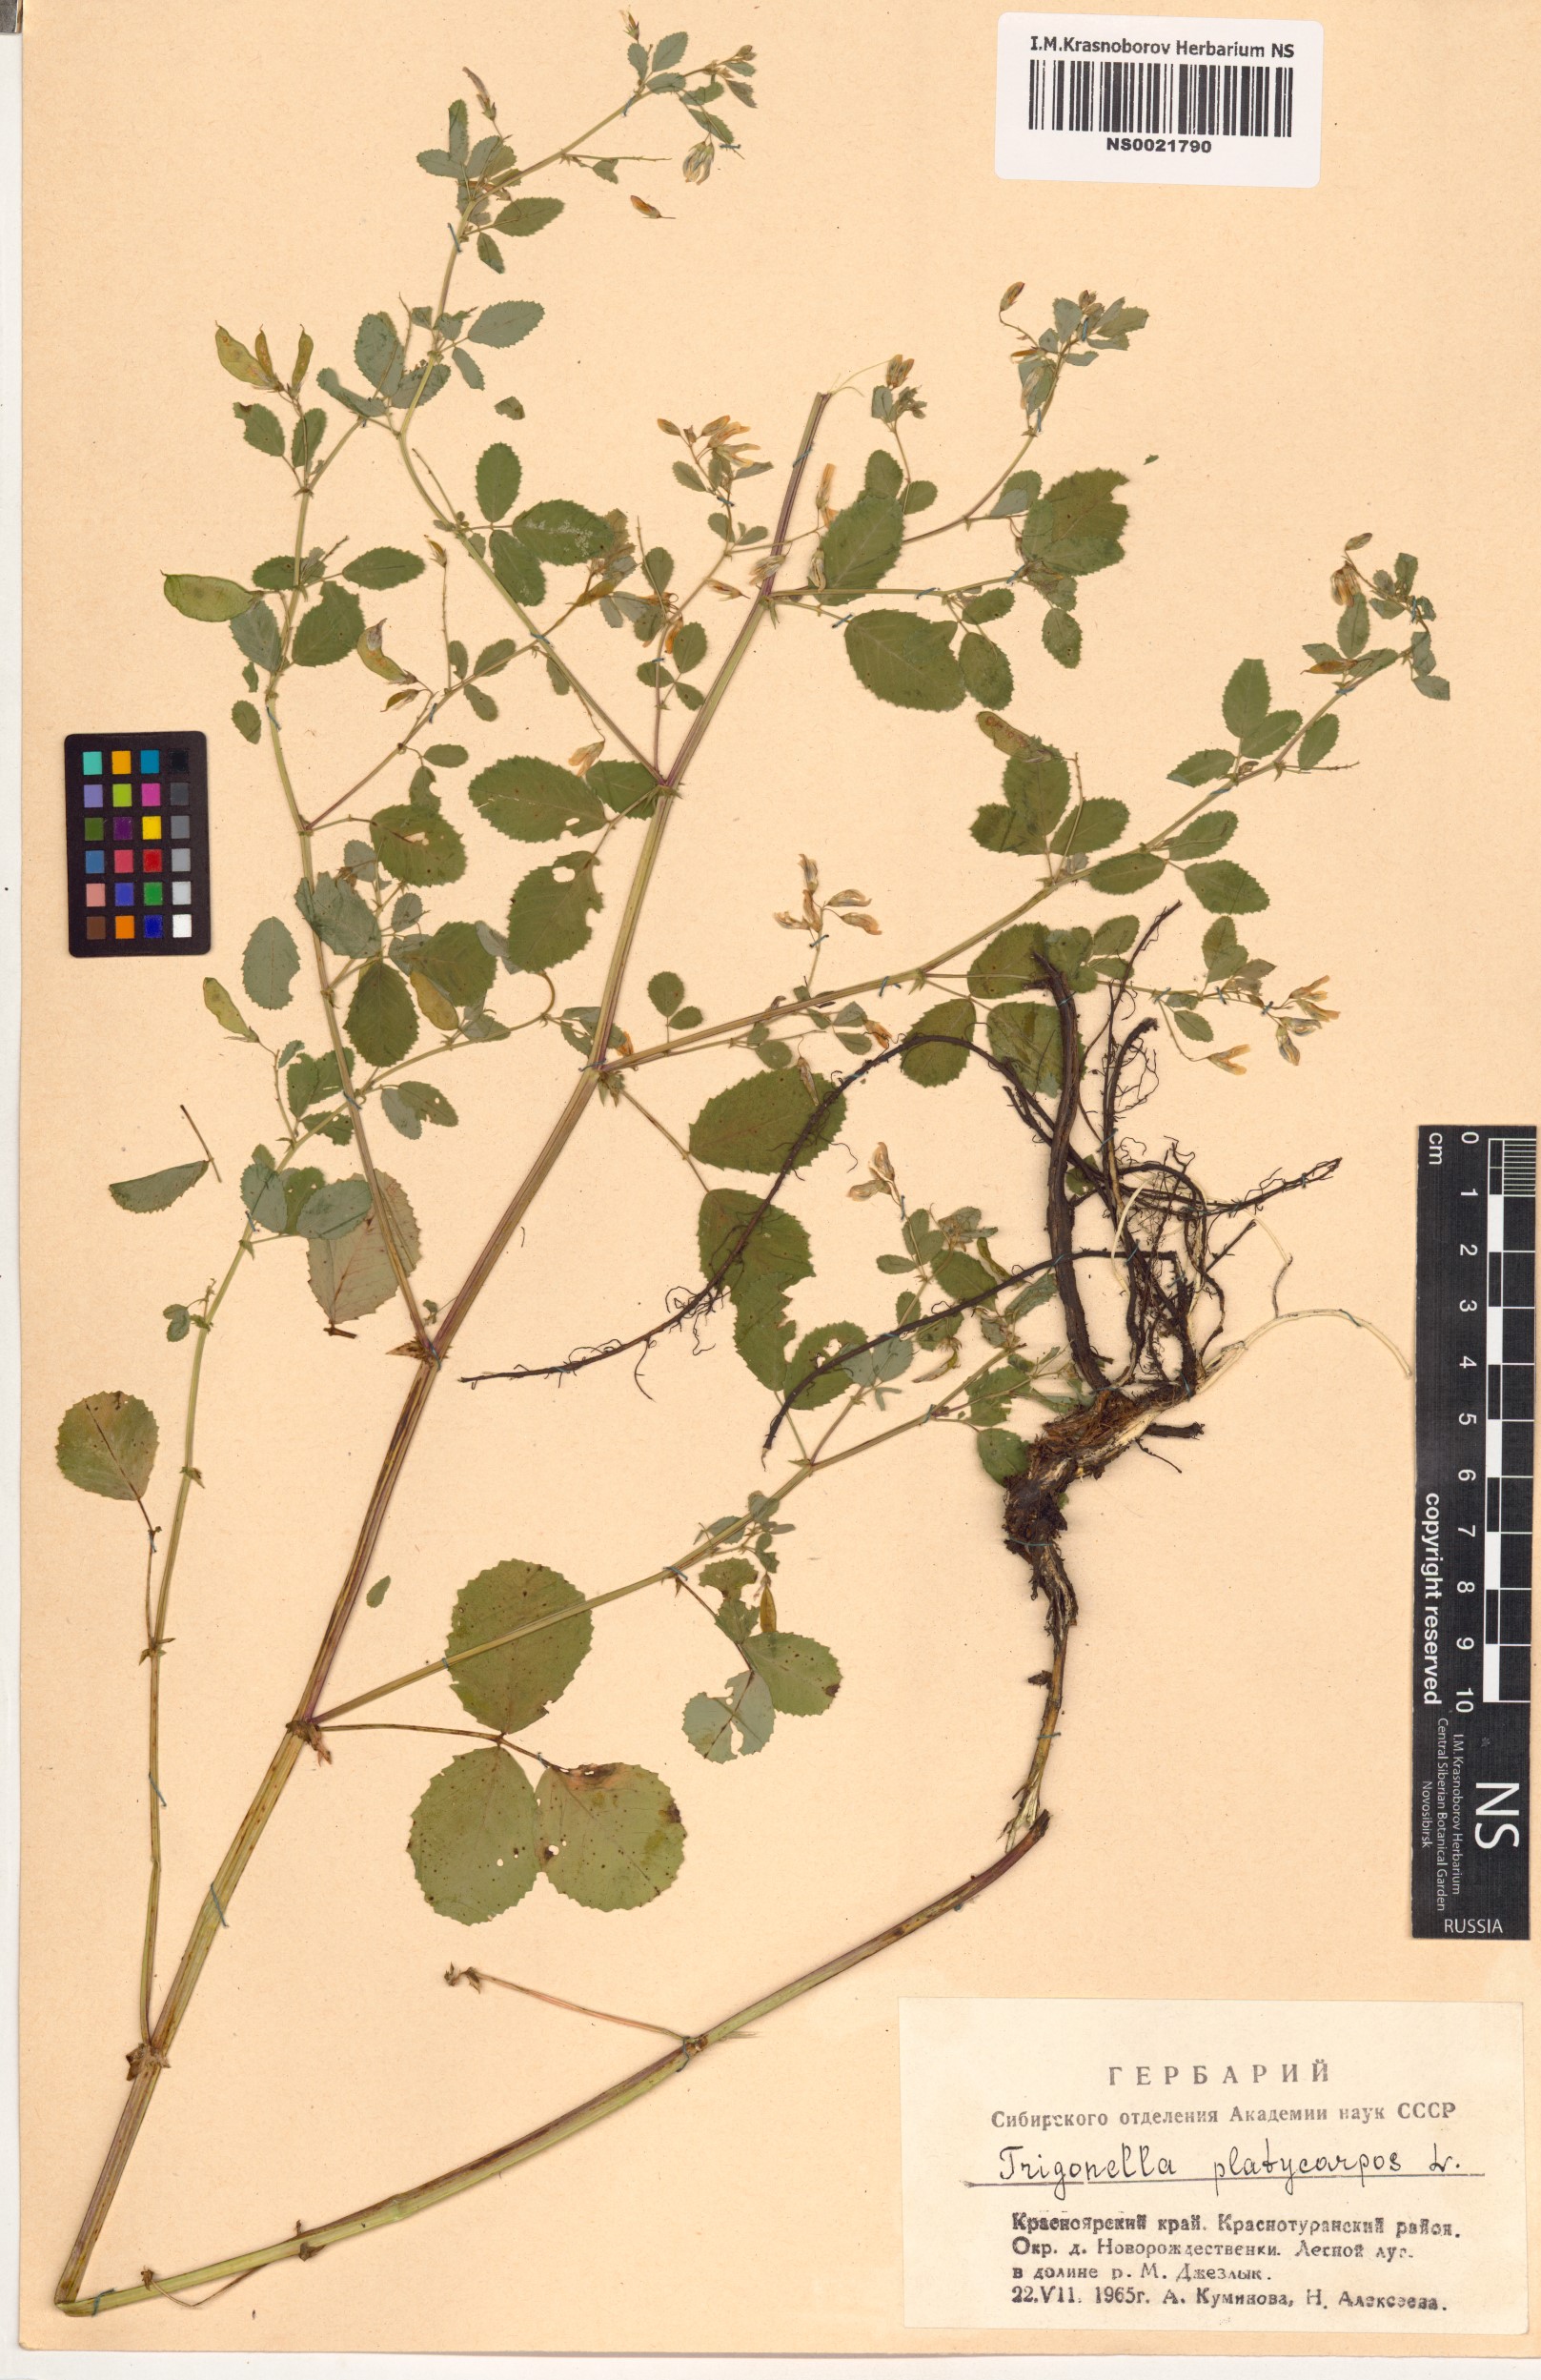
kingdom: Plantae
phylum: Tracheophyta
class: Magnoliopsida
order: Fabales
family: Fabaceae
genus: Medicago
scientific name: Medicago platycarpos
